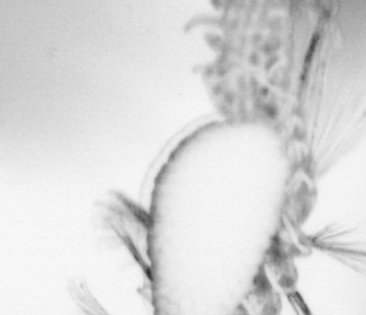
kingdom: Animalia
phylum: Annelida
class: Polychaeta
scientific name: Polychaeta
